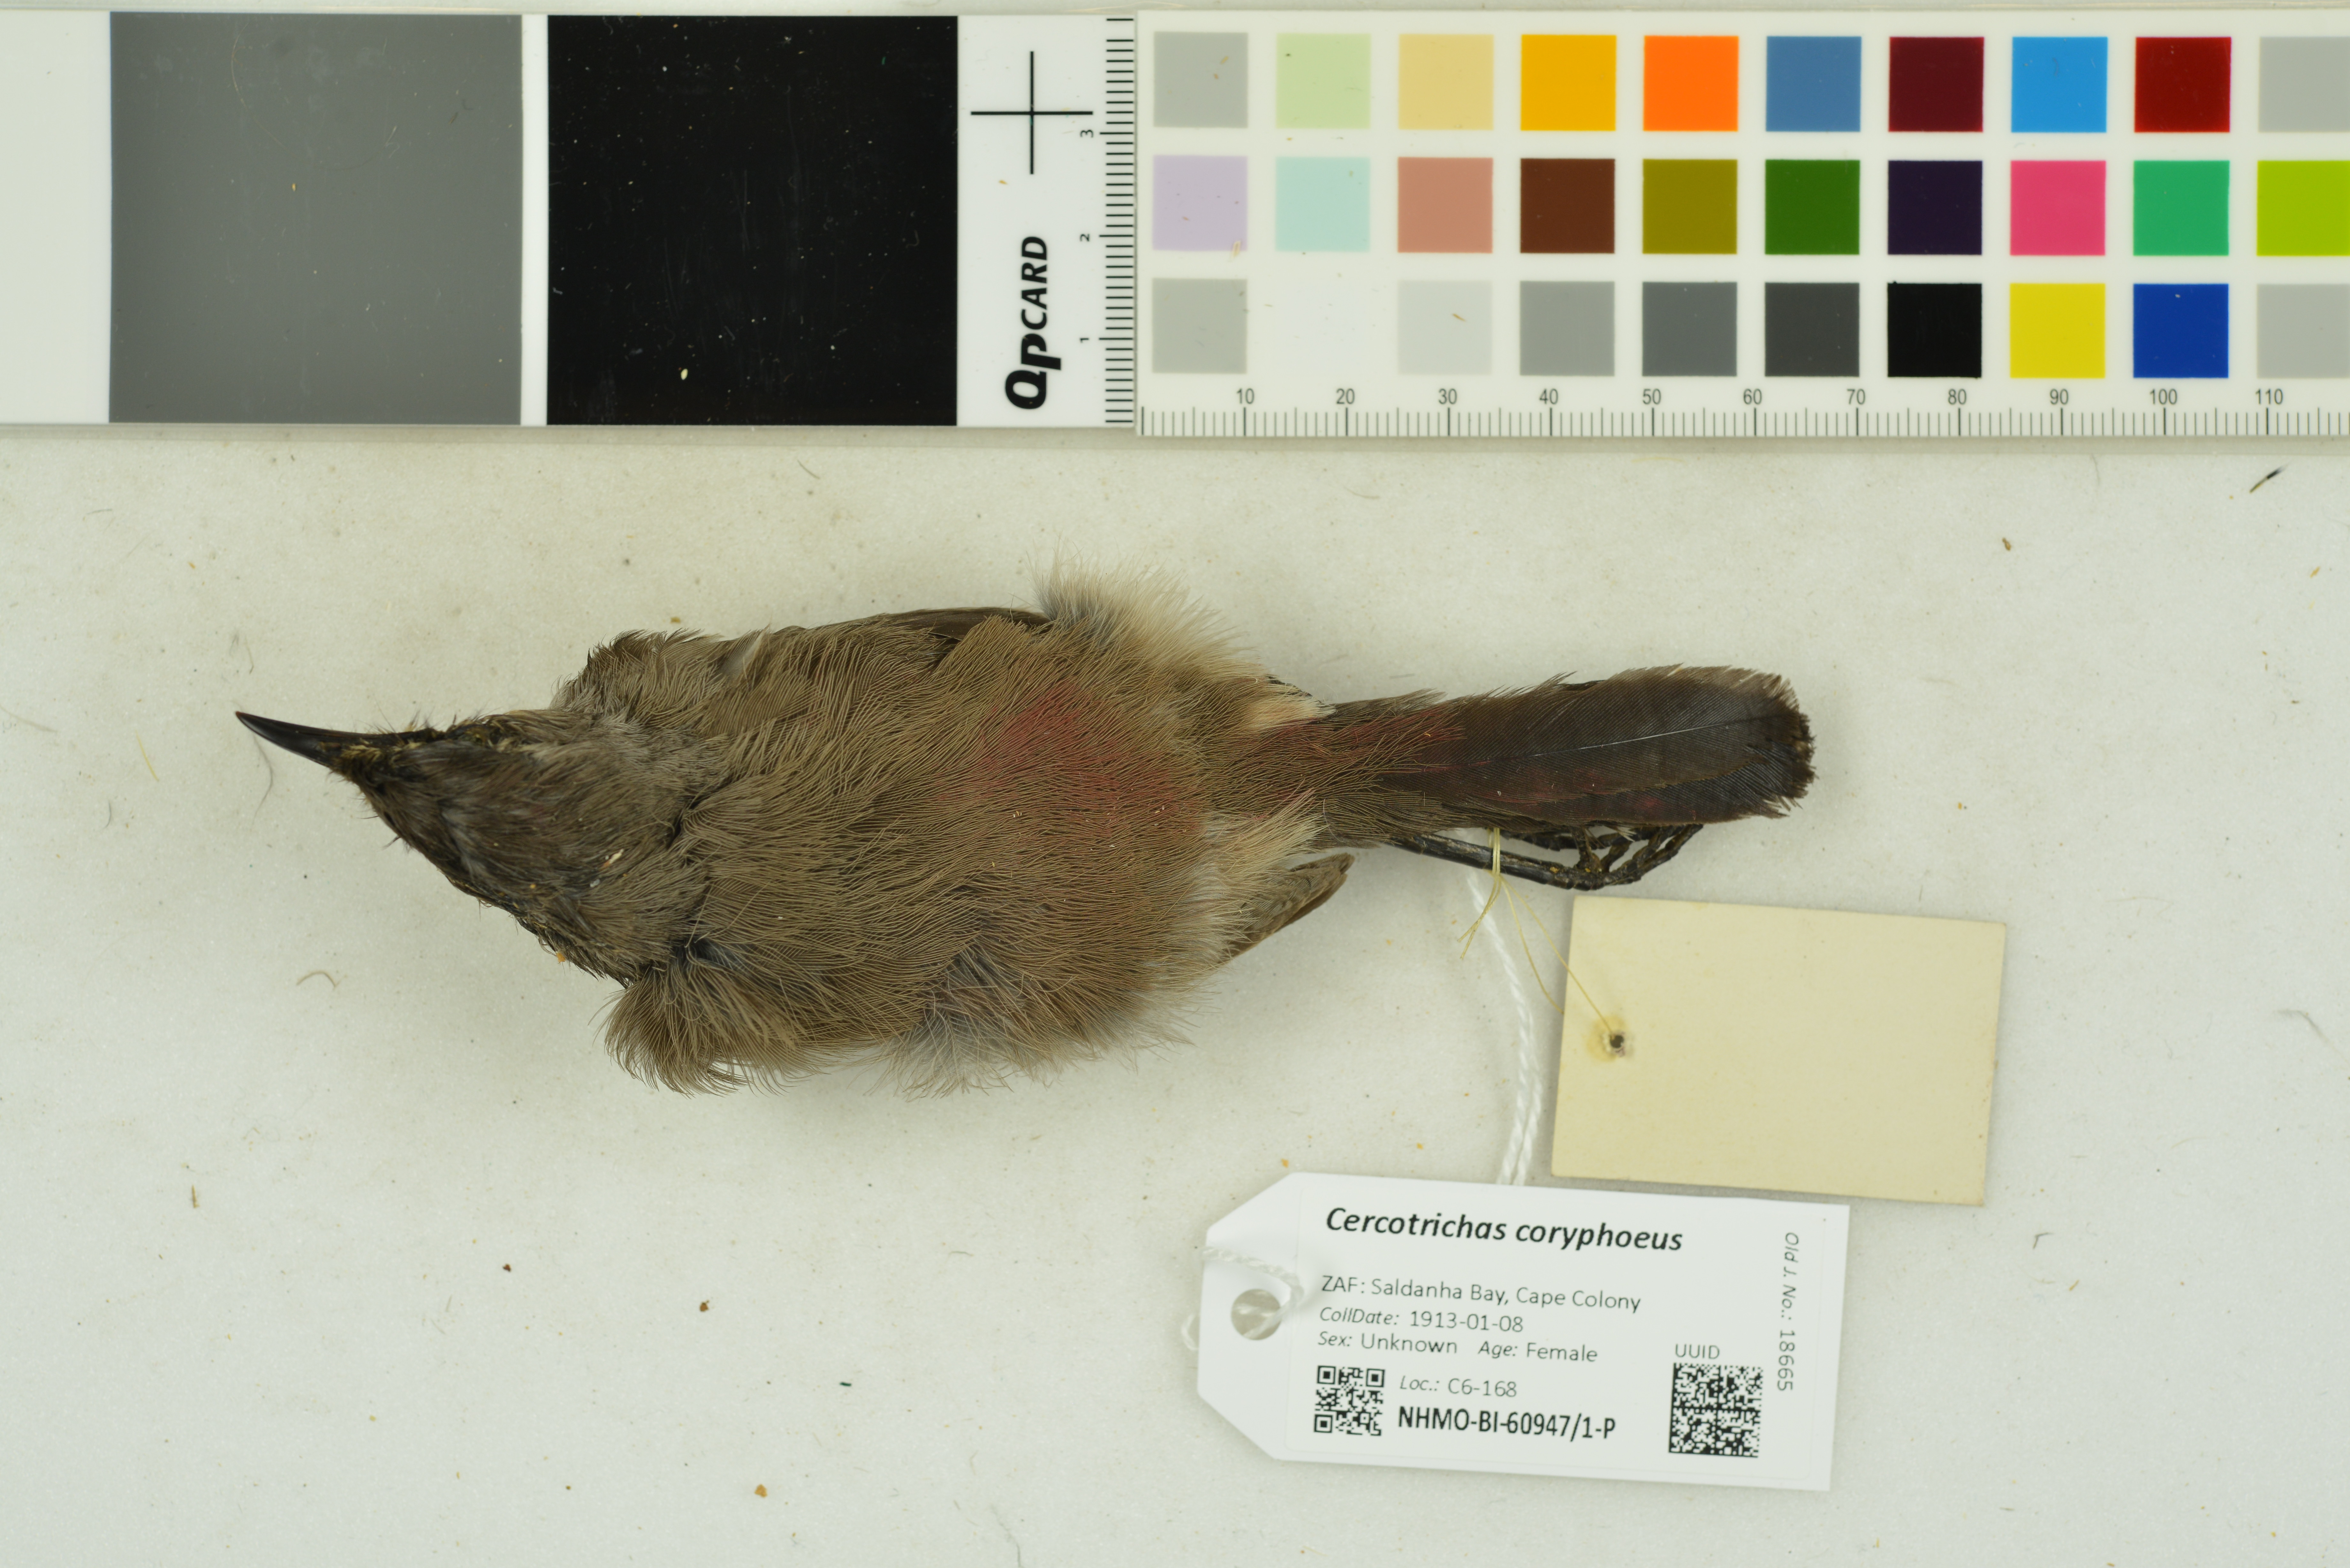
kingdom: Animalia
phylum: Chordata
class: Aves
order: Passeriformes
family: Muscicapidae
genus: Erythropygia
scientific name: Erythropygia coryphoeus
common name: Karoo scrub robin
